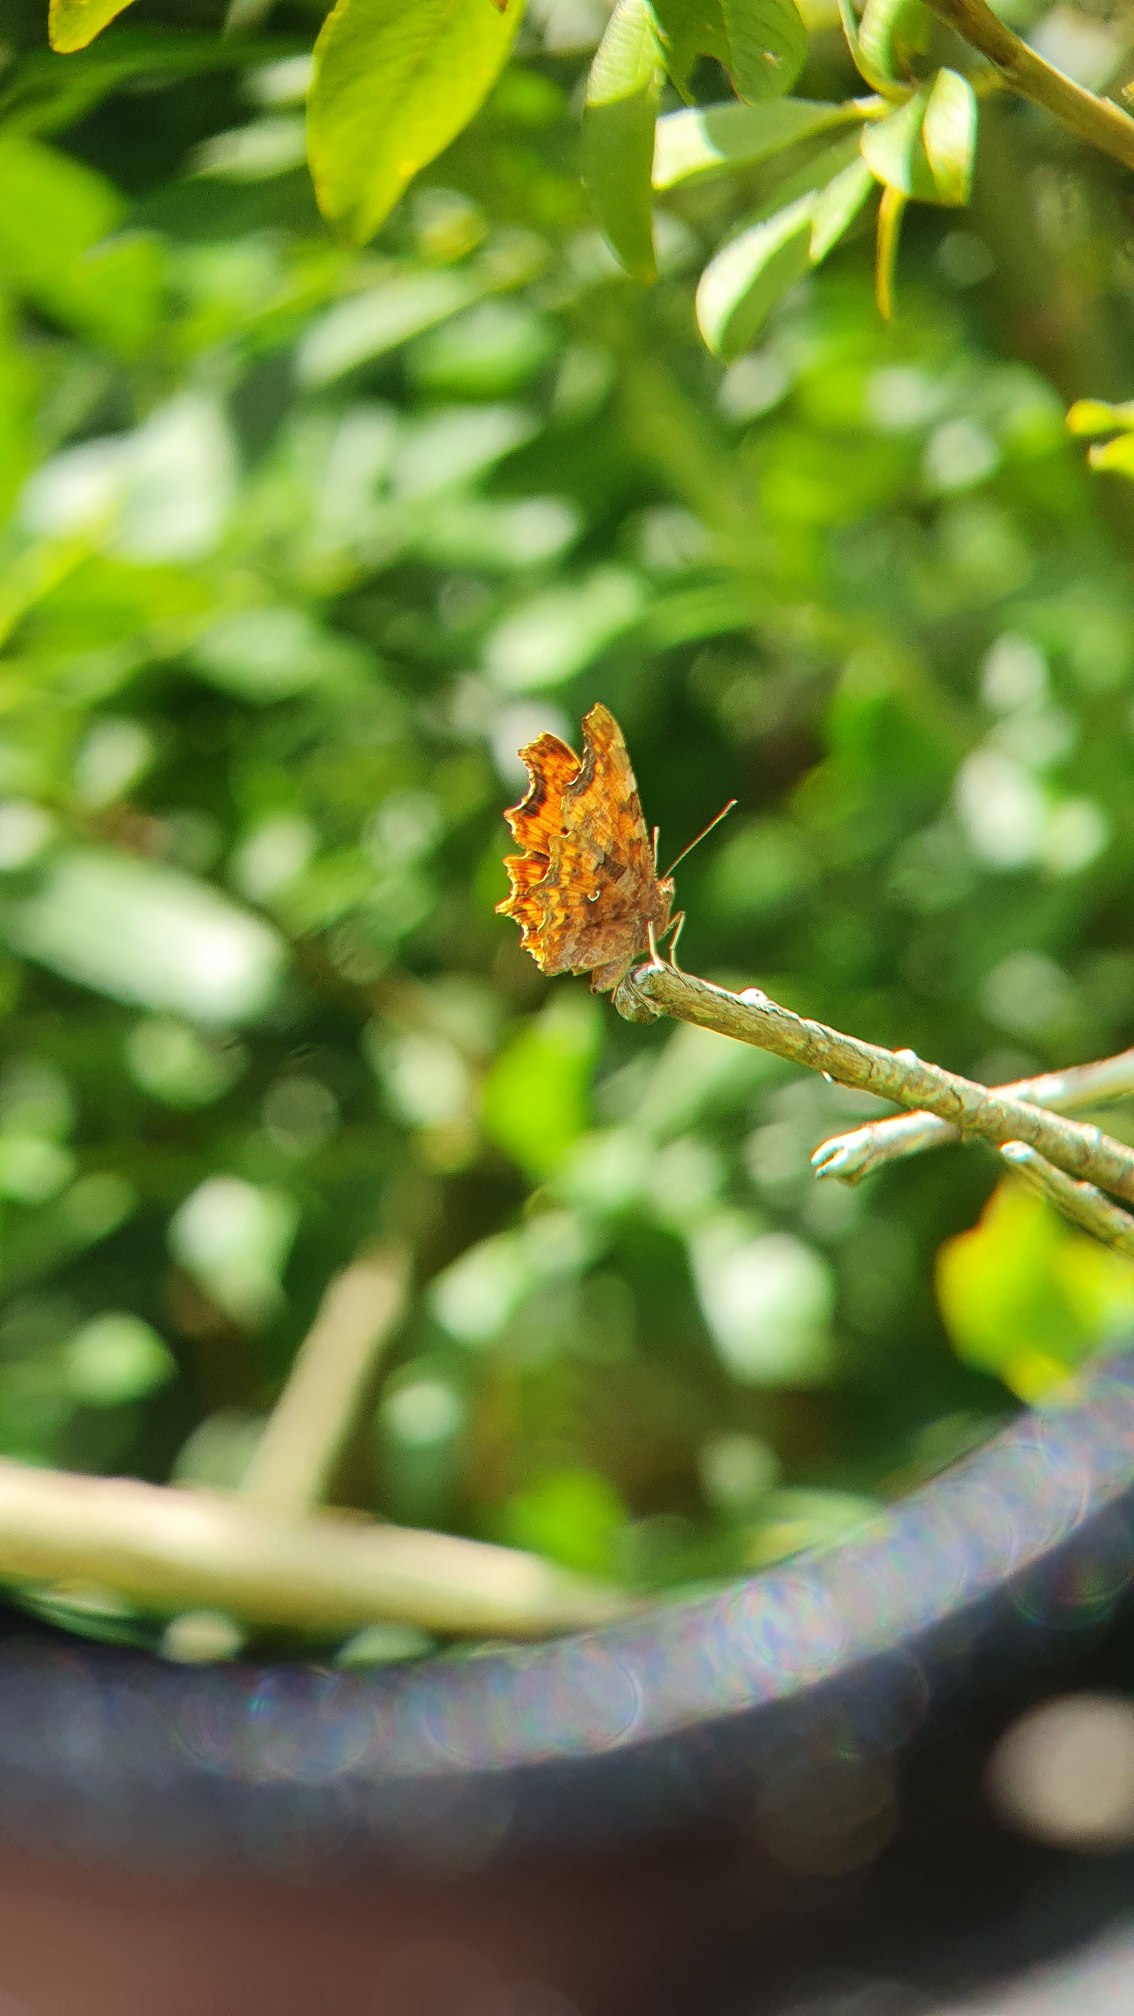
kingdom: Animalia
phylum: Arthropoda
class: Insecta
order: Lepidoptera
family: Nymphalidae
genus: Polygonia
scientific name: Polygonia c-album
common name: Det hvide C
